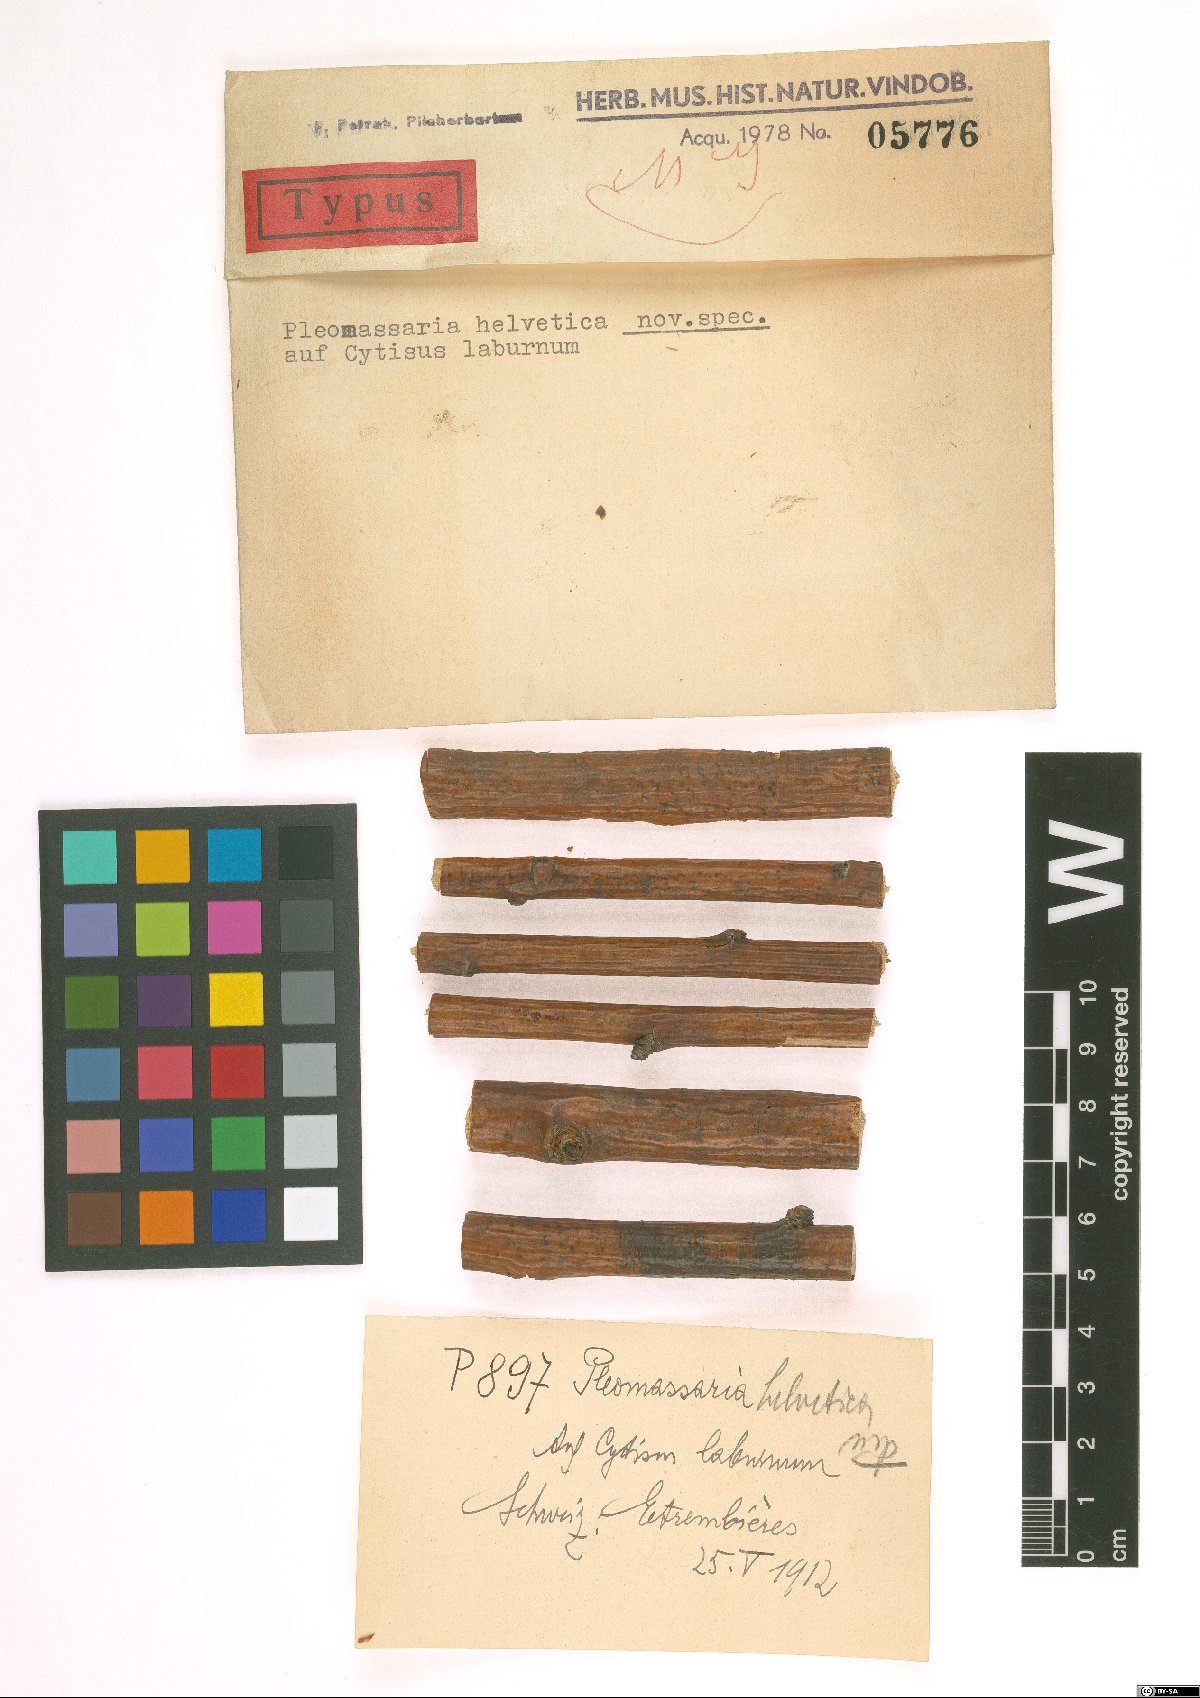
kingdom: Fungi
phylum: Ascomycota
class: Dothideomycetes
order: Pleosporales
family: Pleomassariaceae
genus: Pleomassaria
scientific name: Pleomassaria helvetica
